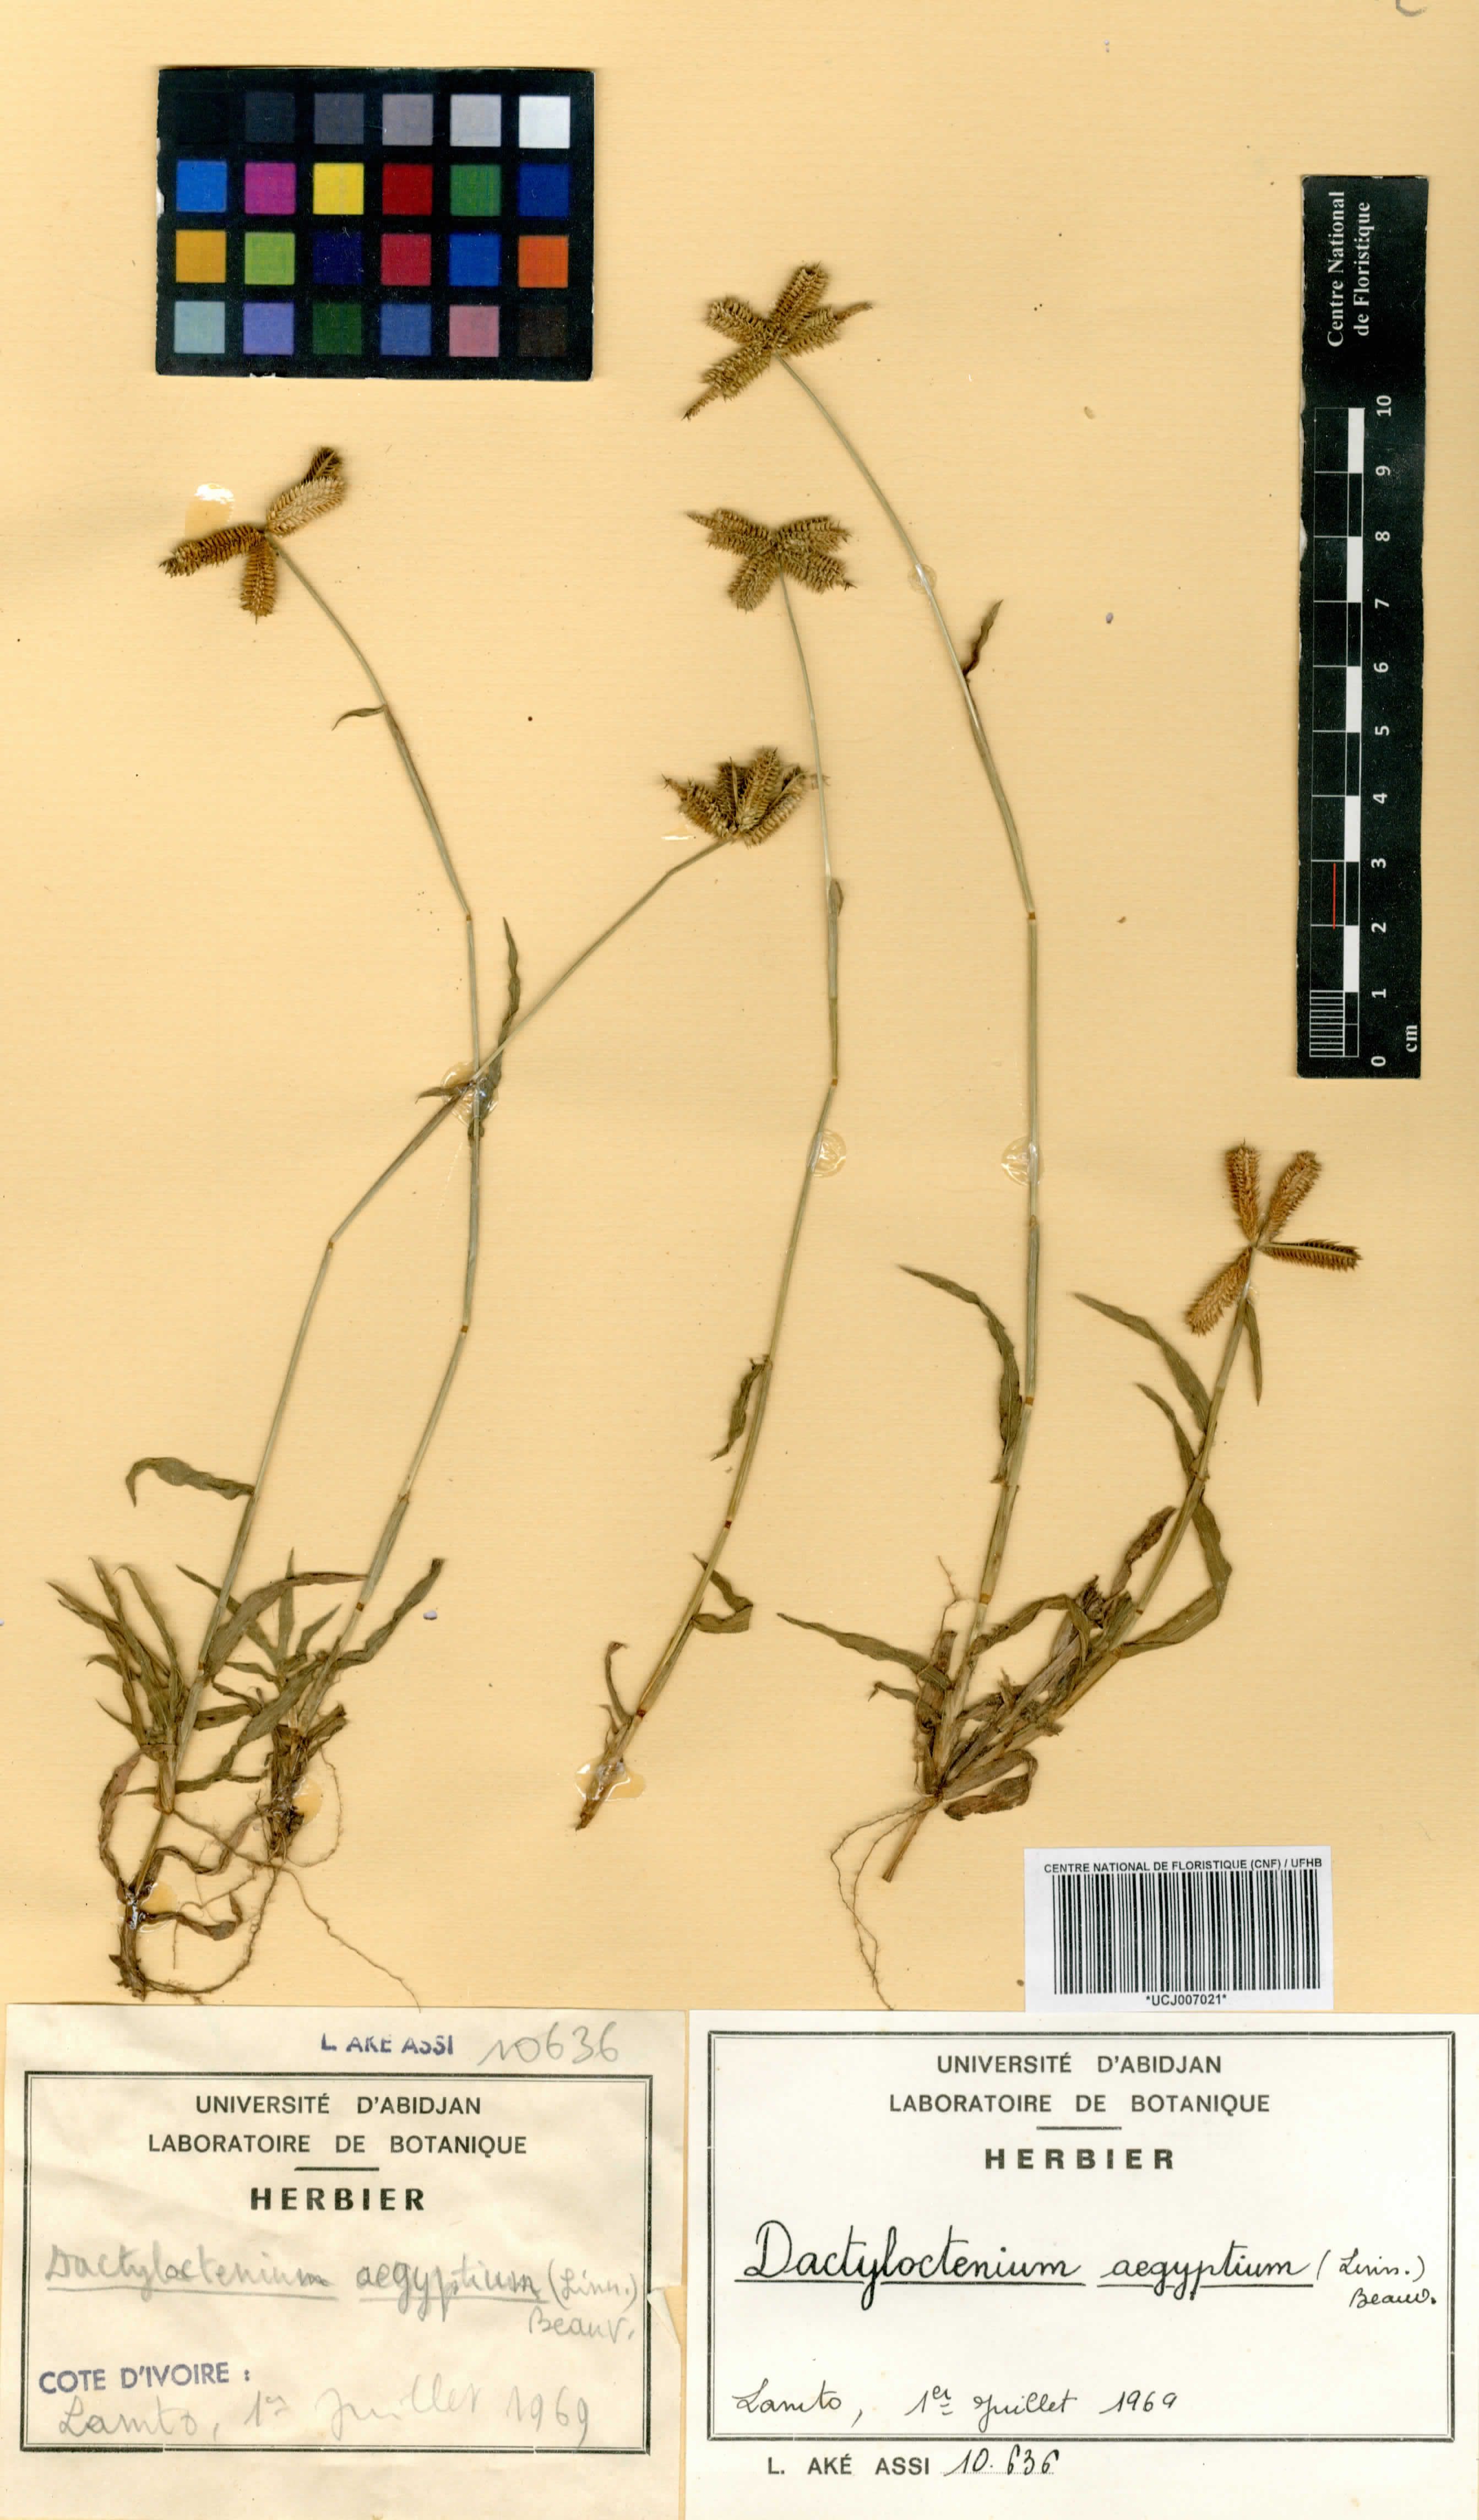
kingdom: Plantae
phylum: Tracheophyta
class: Liliopsida
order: Poales
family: Poaceae
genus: Dactyloctenium
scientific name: Dactyloctenium aegyptium
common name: Egyptian grass
